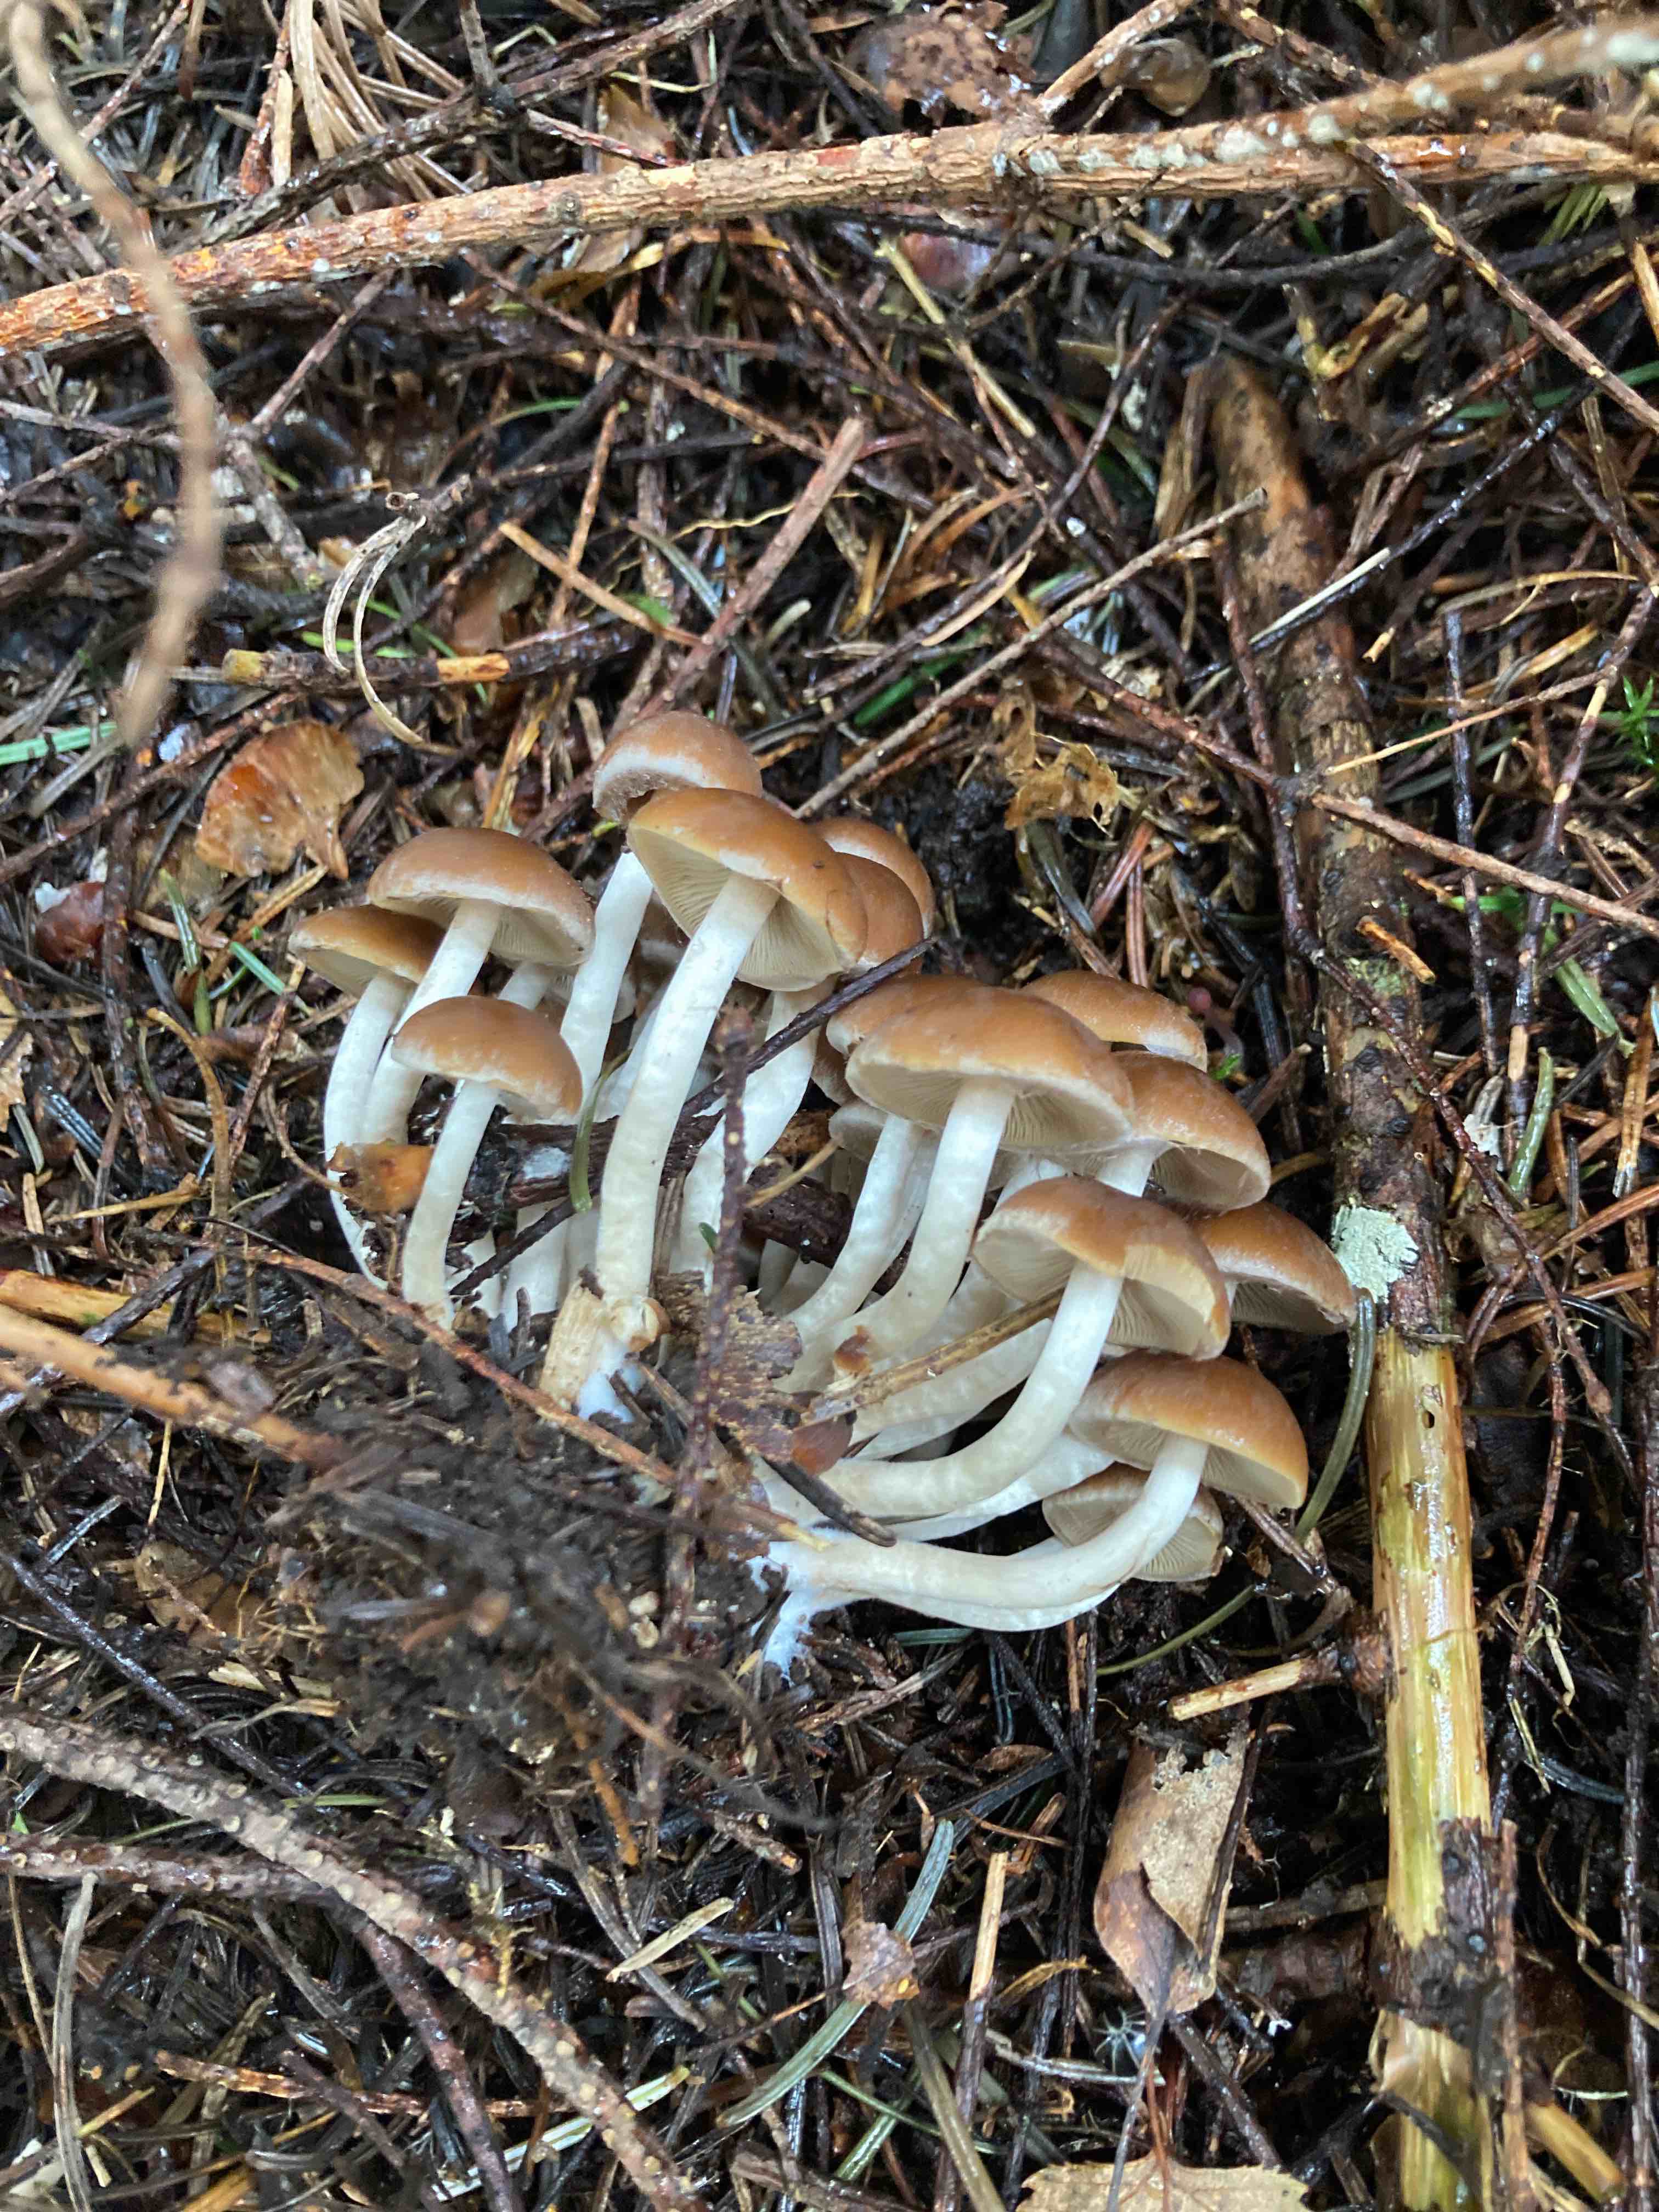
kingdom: Fungi
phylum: Basidiomycota
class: Agaricomycetes
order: Agaricales
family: Psathyrellaceae
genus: Psathyrella
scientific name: Psathyrella
